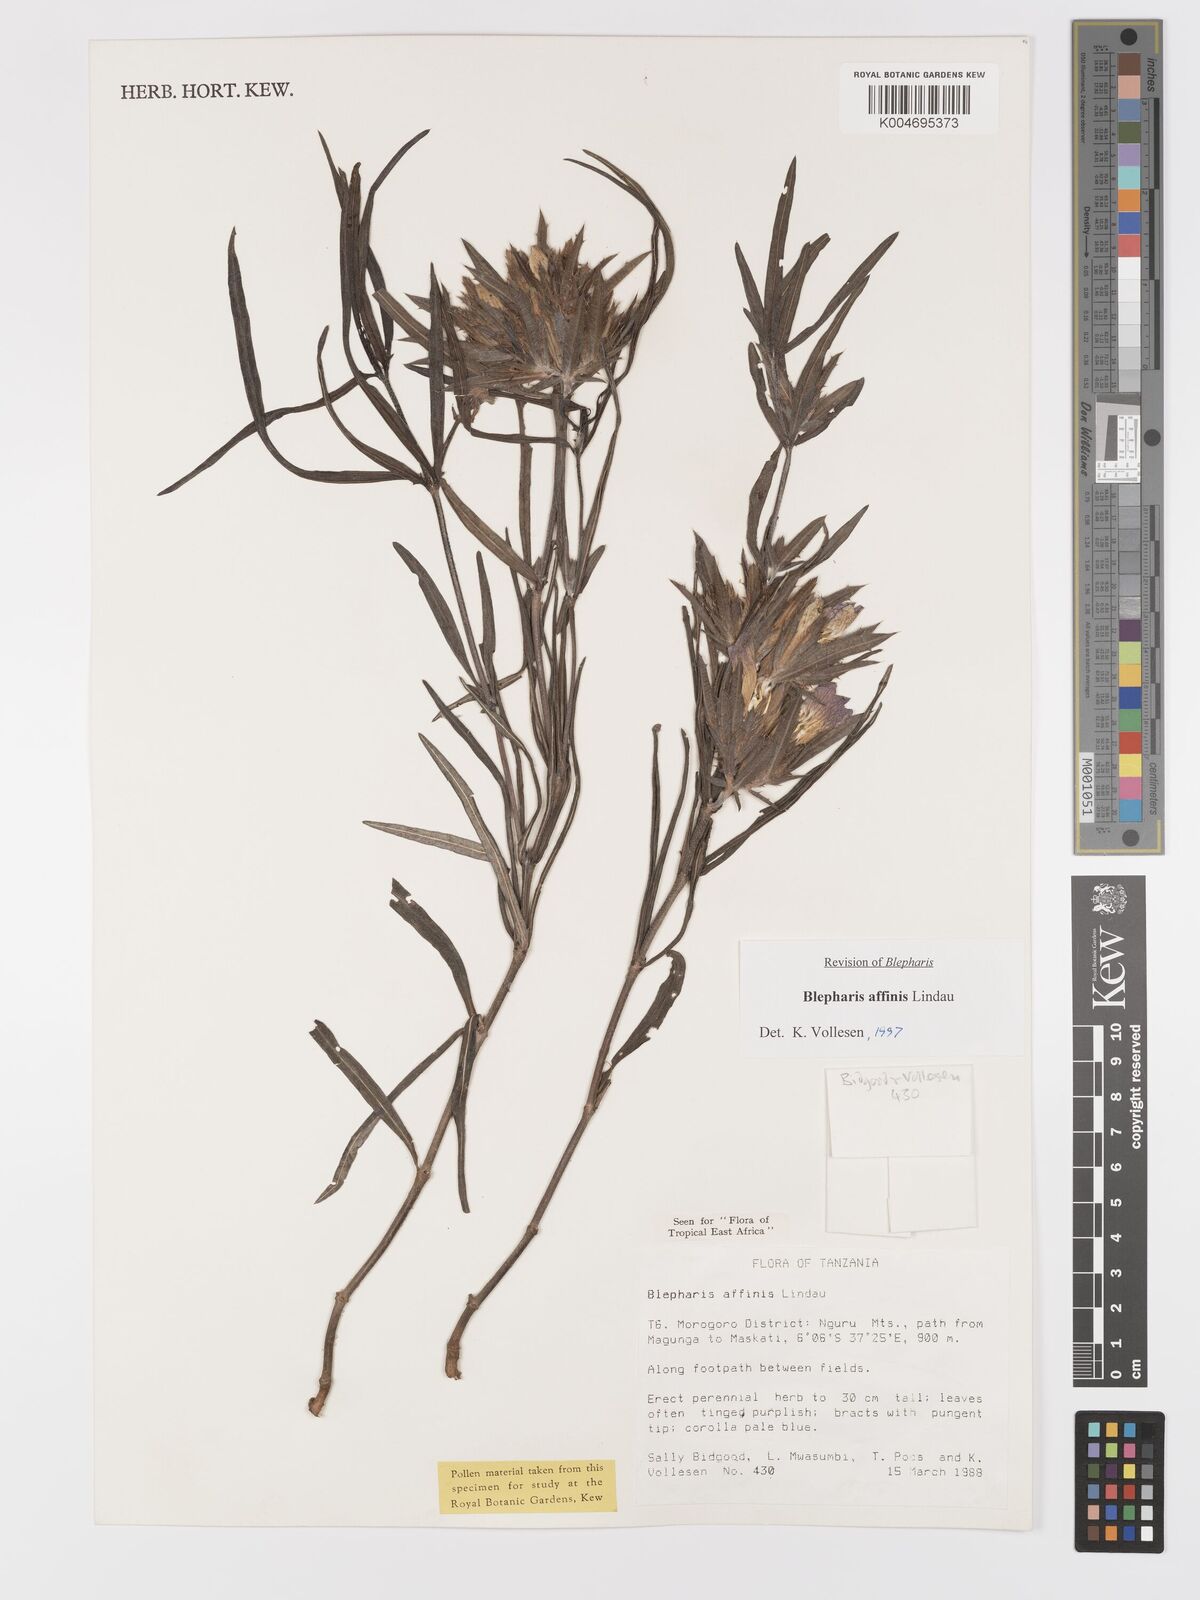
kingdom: Plantae
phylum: Tracheophyta
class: Magnoliopsida
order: Lamiales
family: Acanthaceae
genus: Blepharis
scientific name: Blepharis affinis
